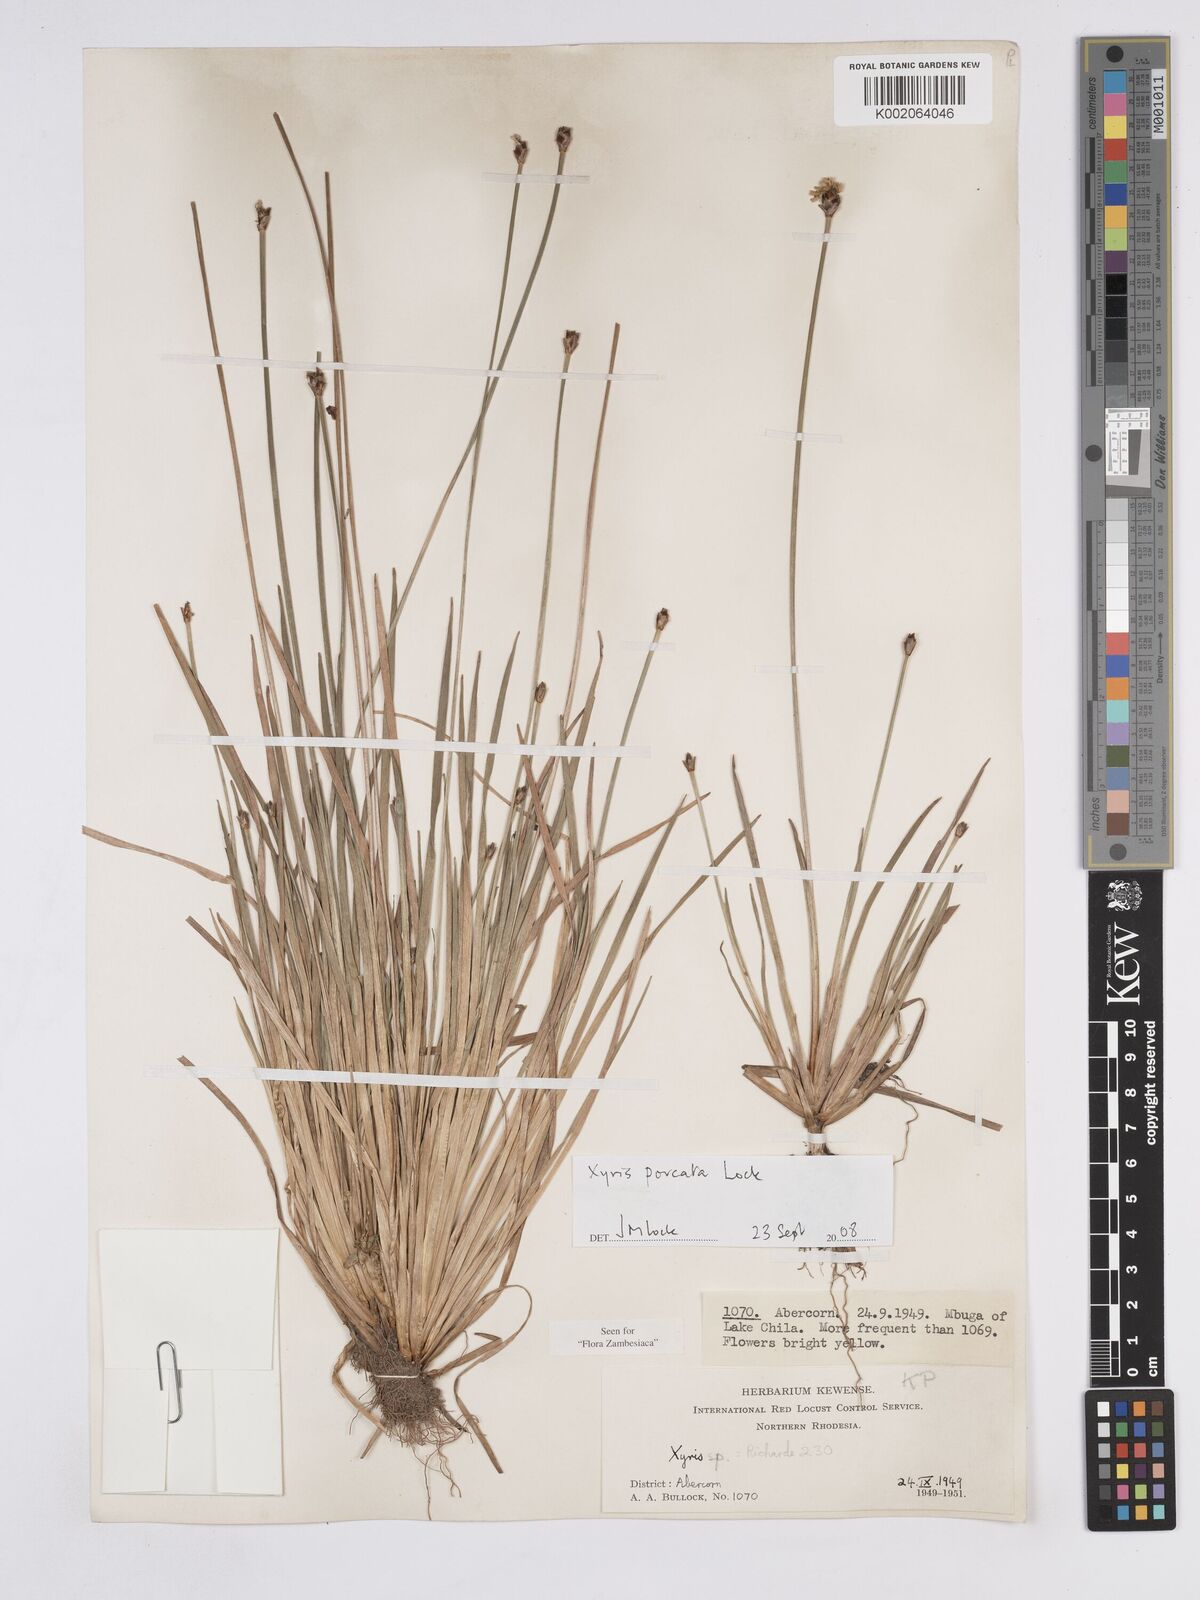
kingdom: Plantae
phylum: Tracheophyta
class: Liliopsida
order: Poales
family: Xyridaceae
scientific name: Xyridaceae
